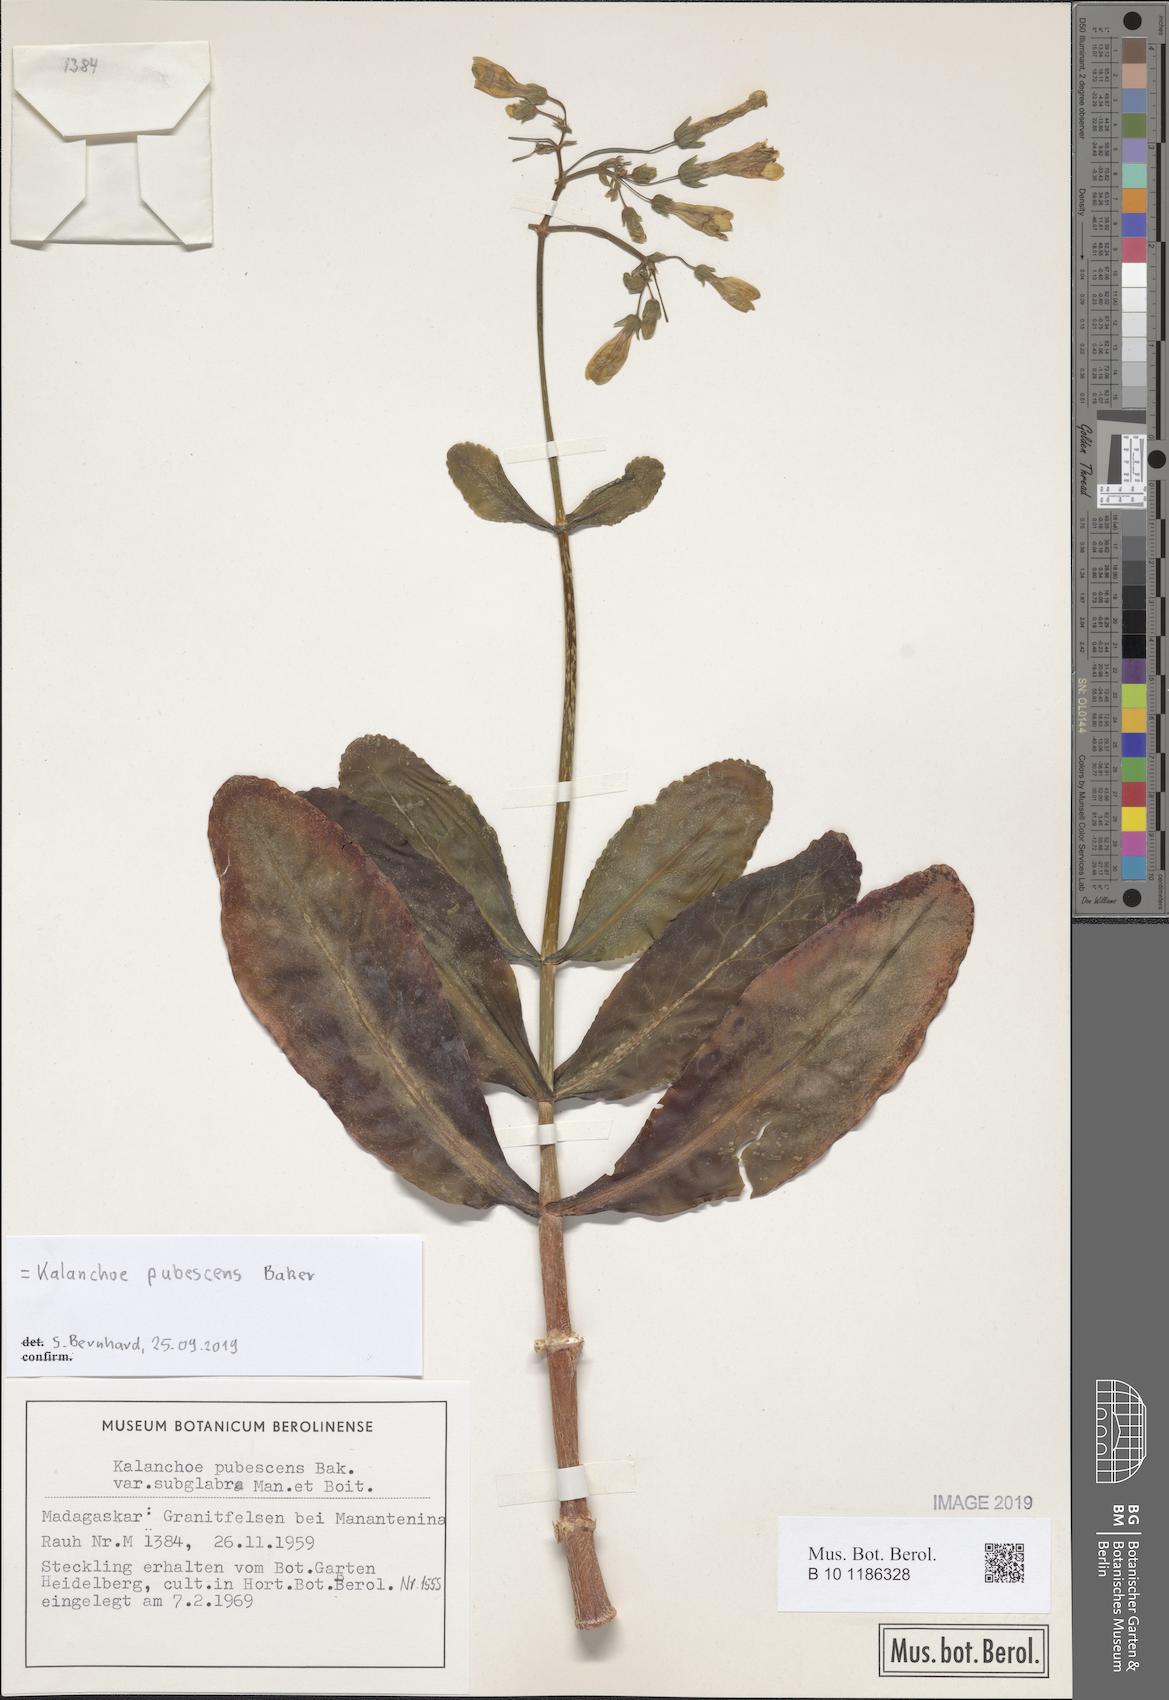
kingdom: Plantae
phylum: Tracheophyta
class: Magnoliopsida
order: Saxifragales
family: Crassulaceae
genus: Kalanchoe
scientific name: Kalanchoe pubescens
